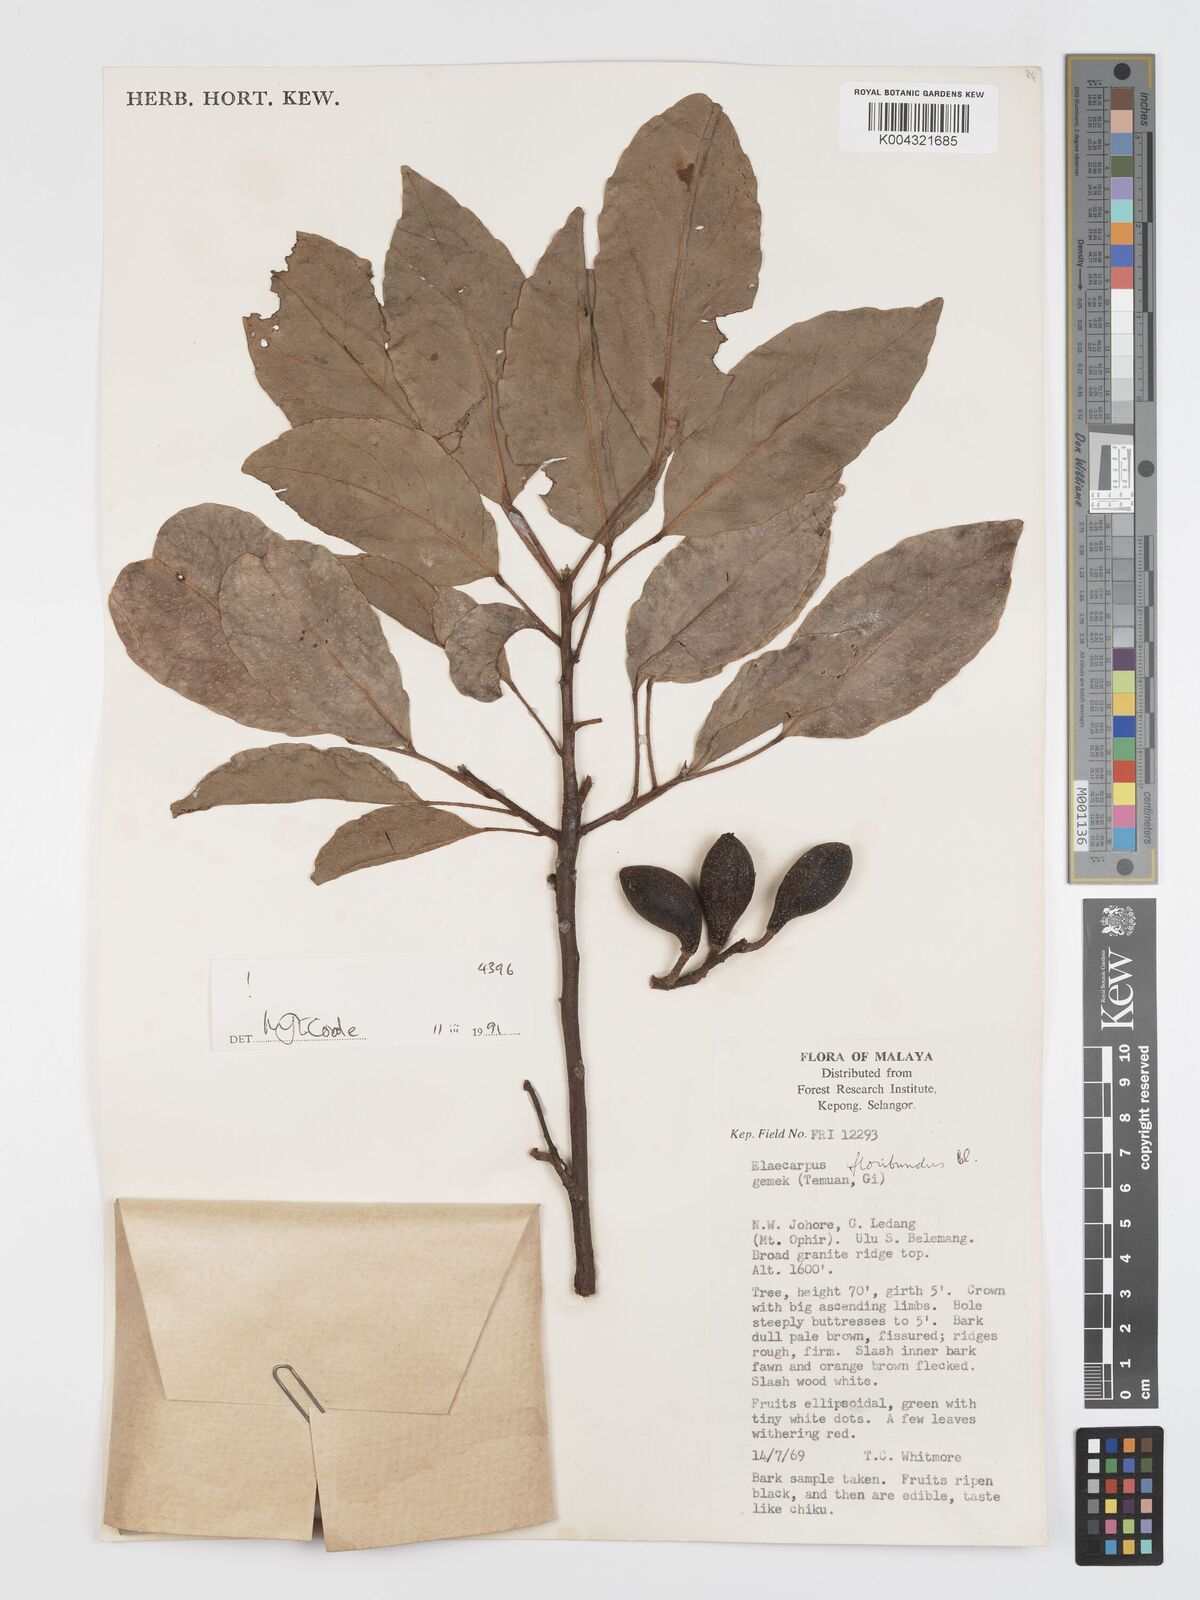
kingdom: Plantae
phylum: Tracheophyta
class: Magnoliopsida
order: Oxalidales
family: Elaeocarpaceae
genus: Elaeocarpus
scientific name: Elaeocarpus floribundus
